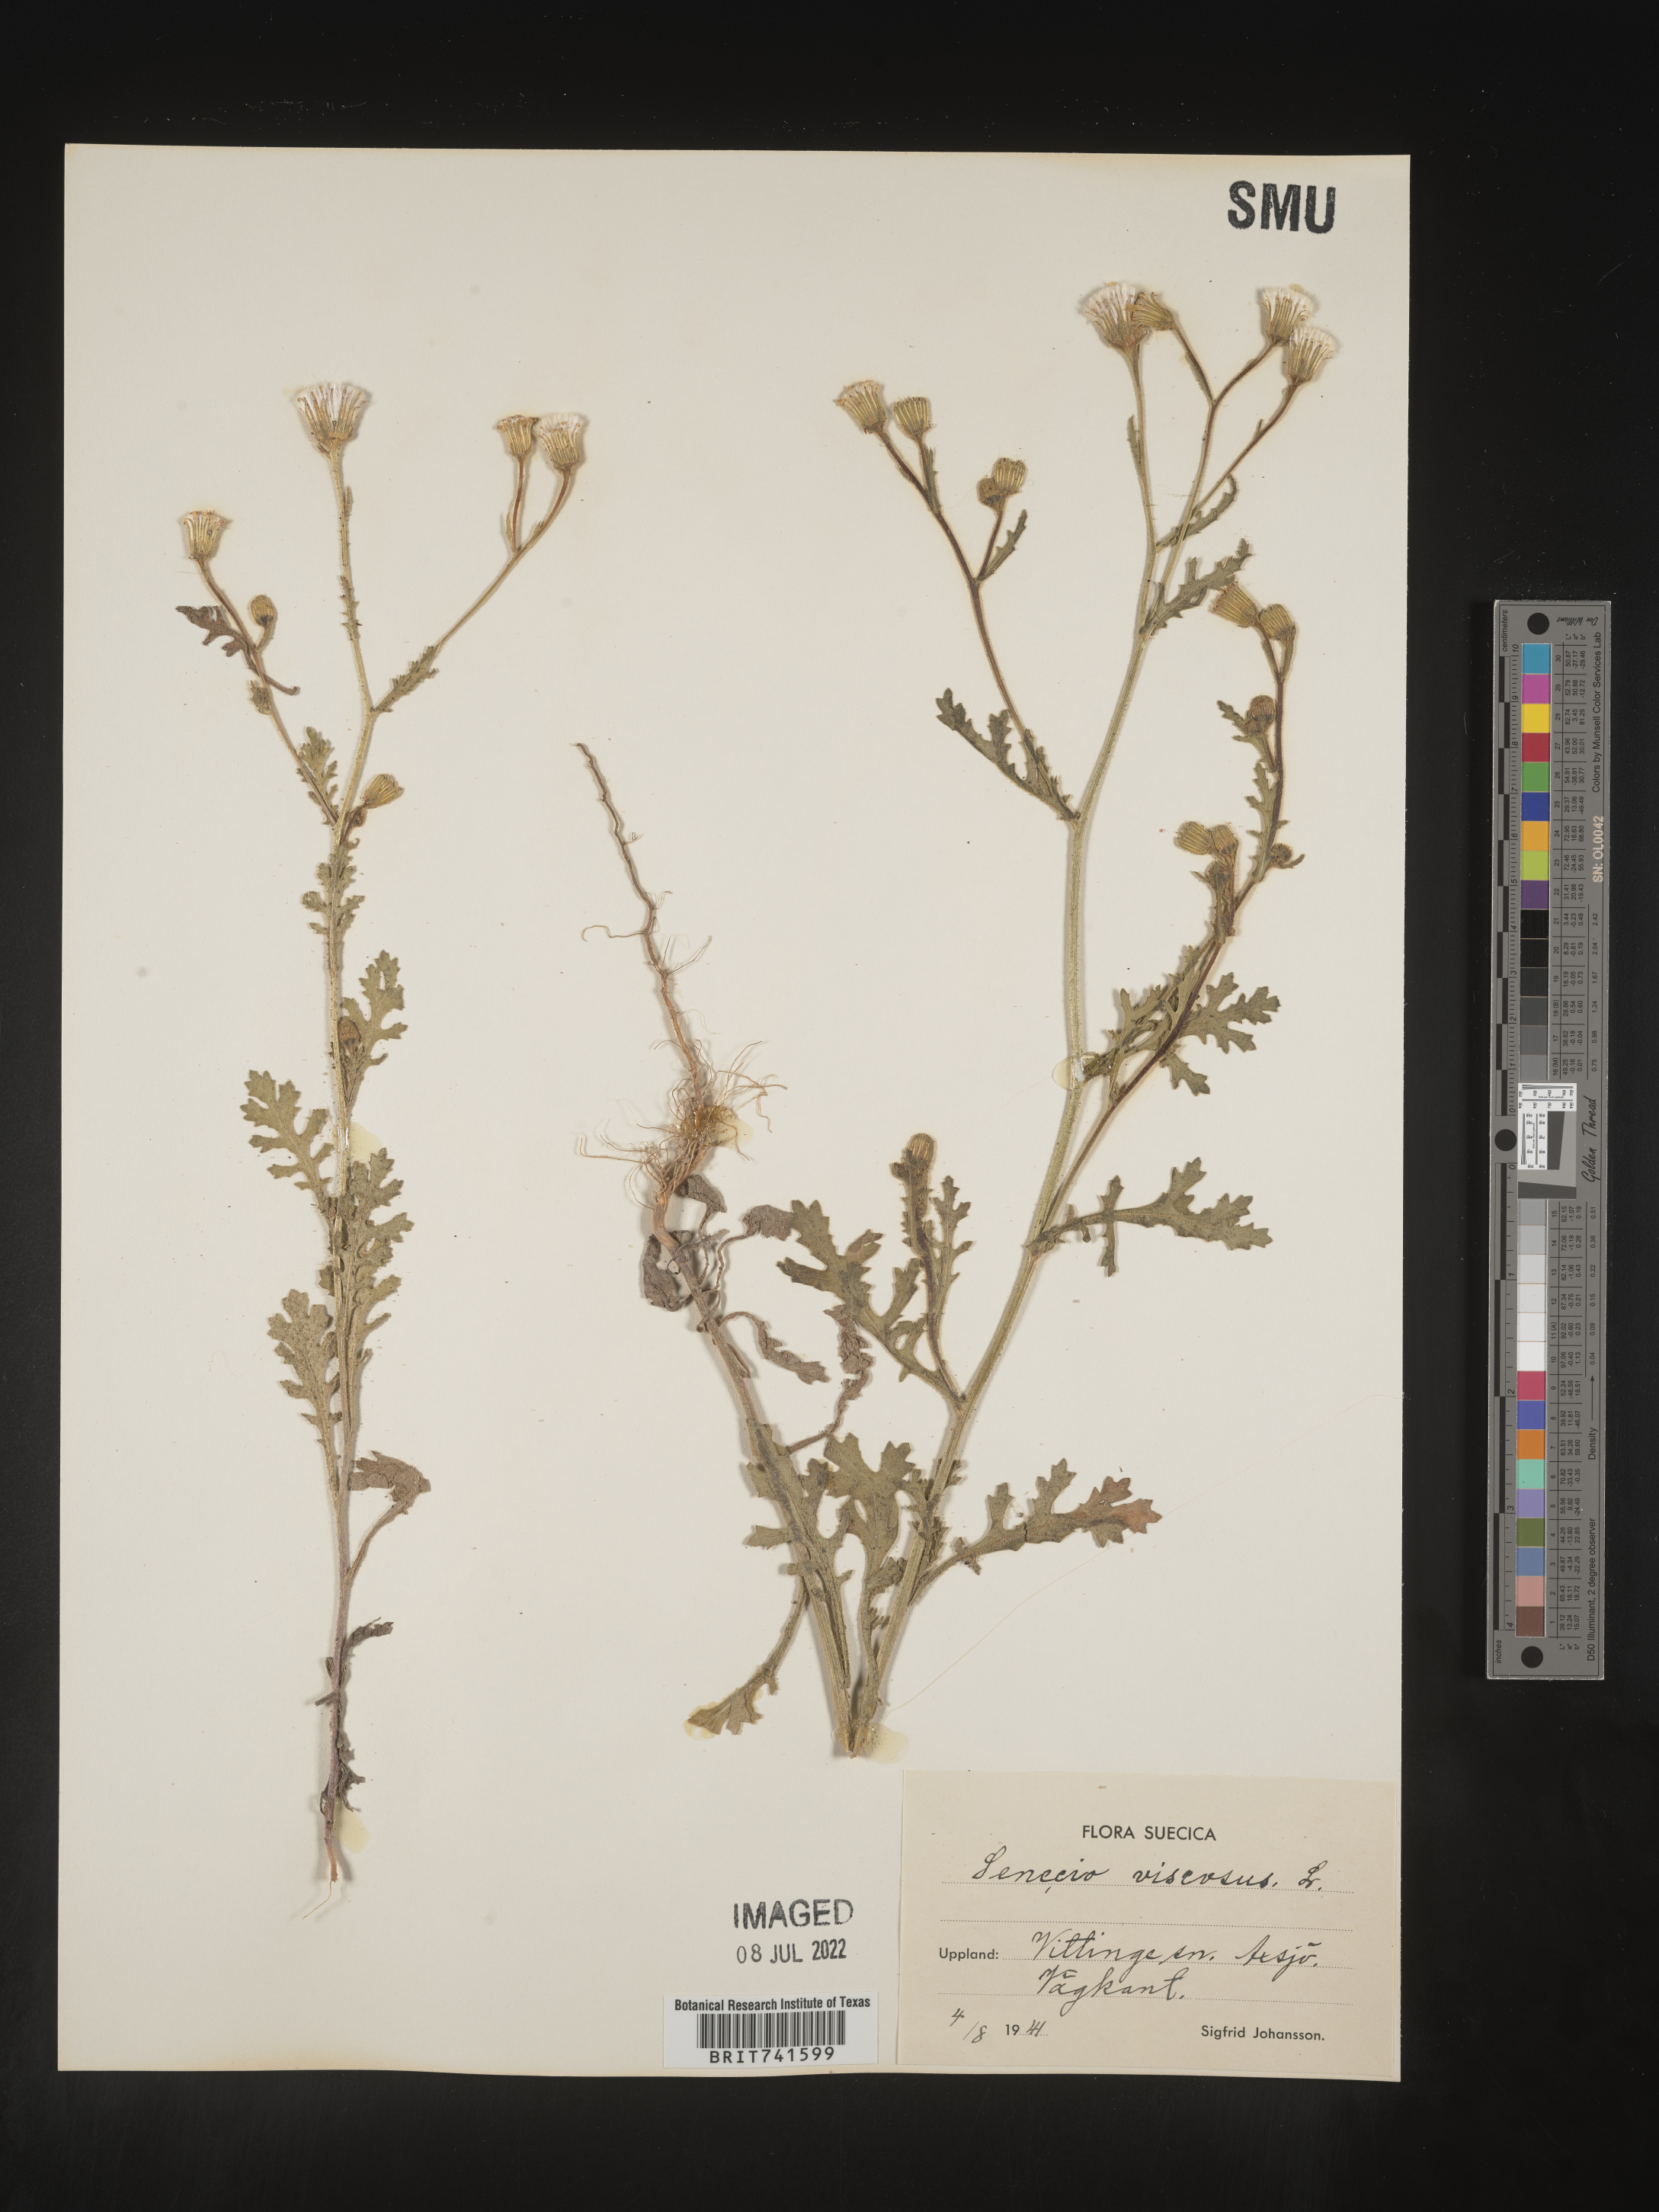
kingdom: Plantae
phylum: Tracheophyta
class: Magnoliopsida
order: Asterales
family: Asteraceae
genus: Senecio
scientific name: Senecio
